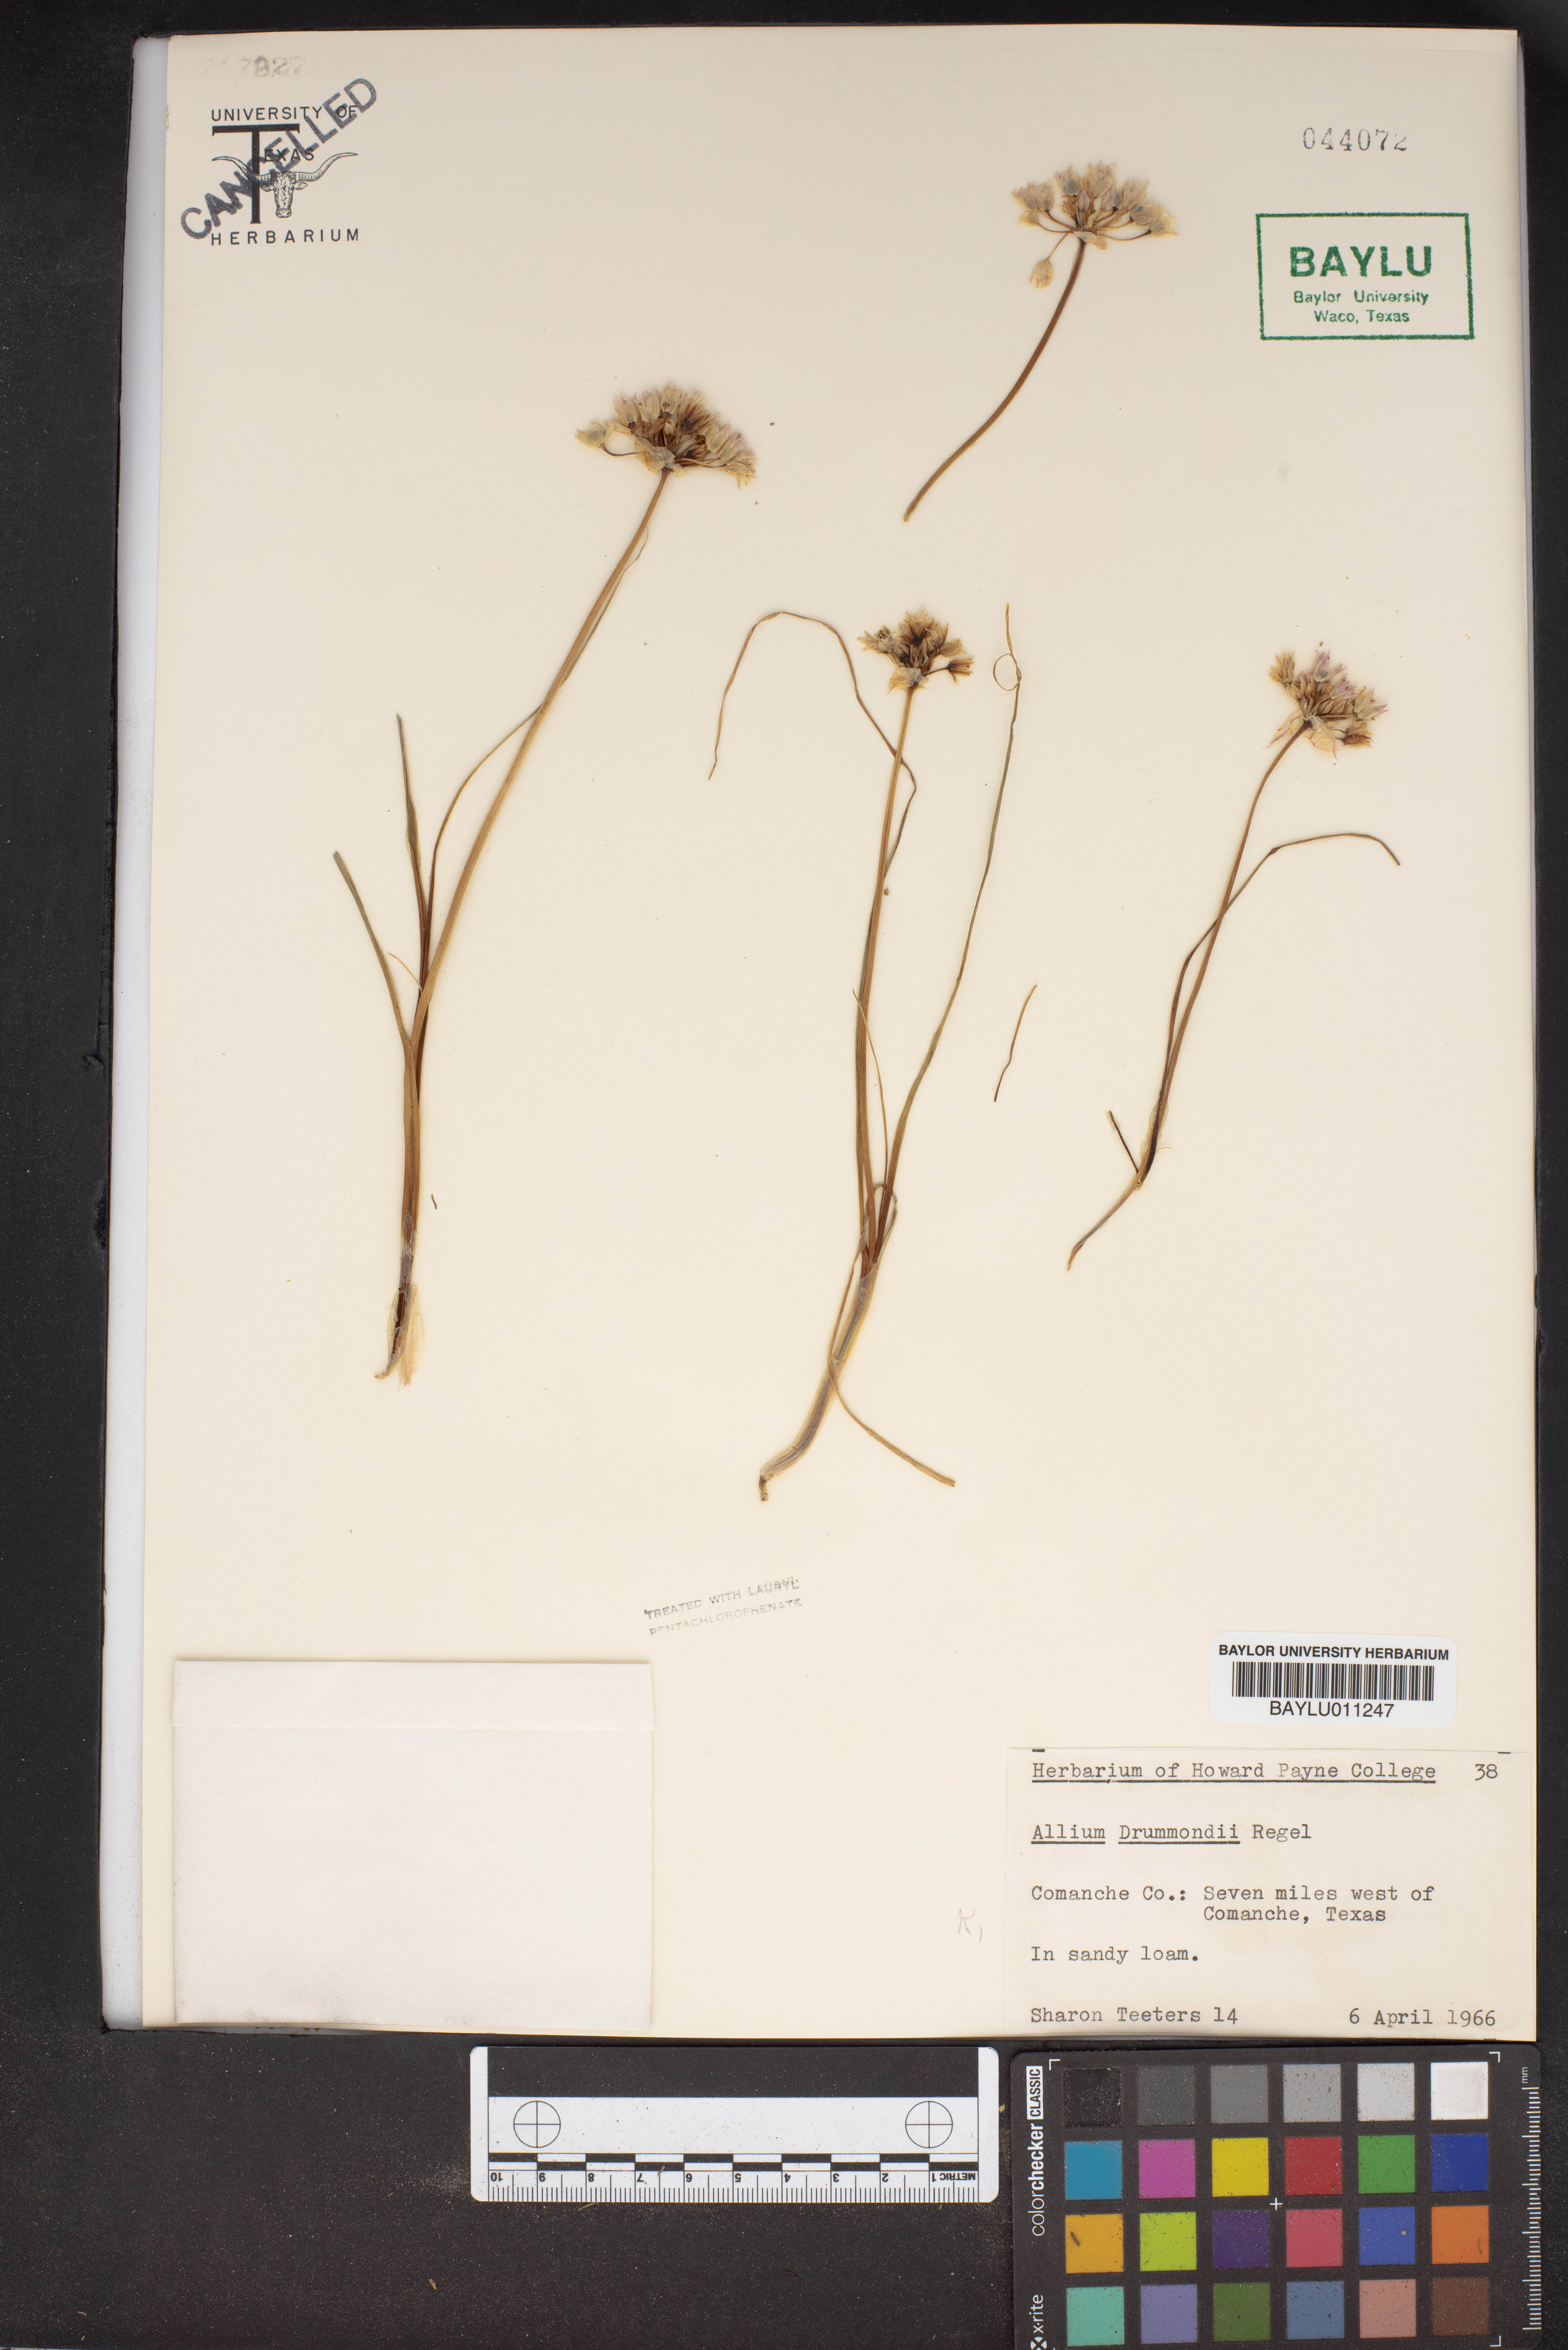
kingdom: Plantae
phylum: Tracheophyta
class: Liliopsida
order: Asparagales
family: Amaryllidaceae
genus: Allium
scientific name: Allium drummondii
